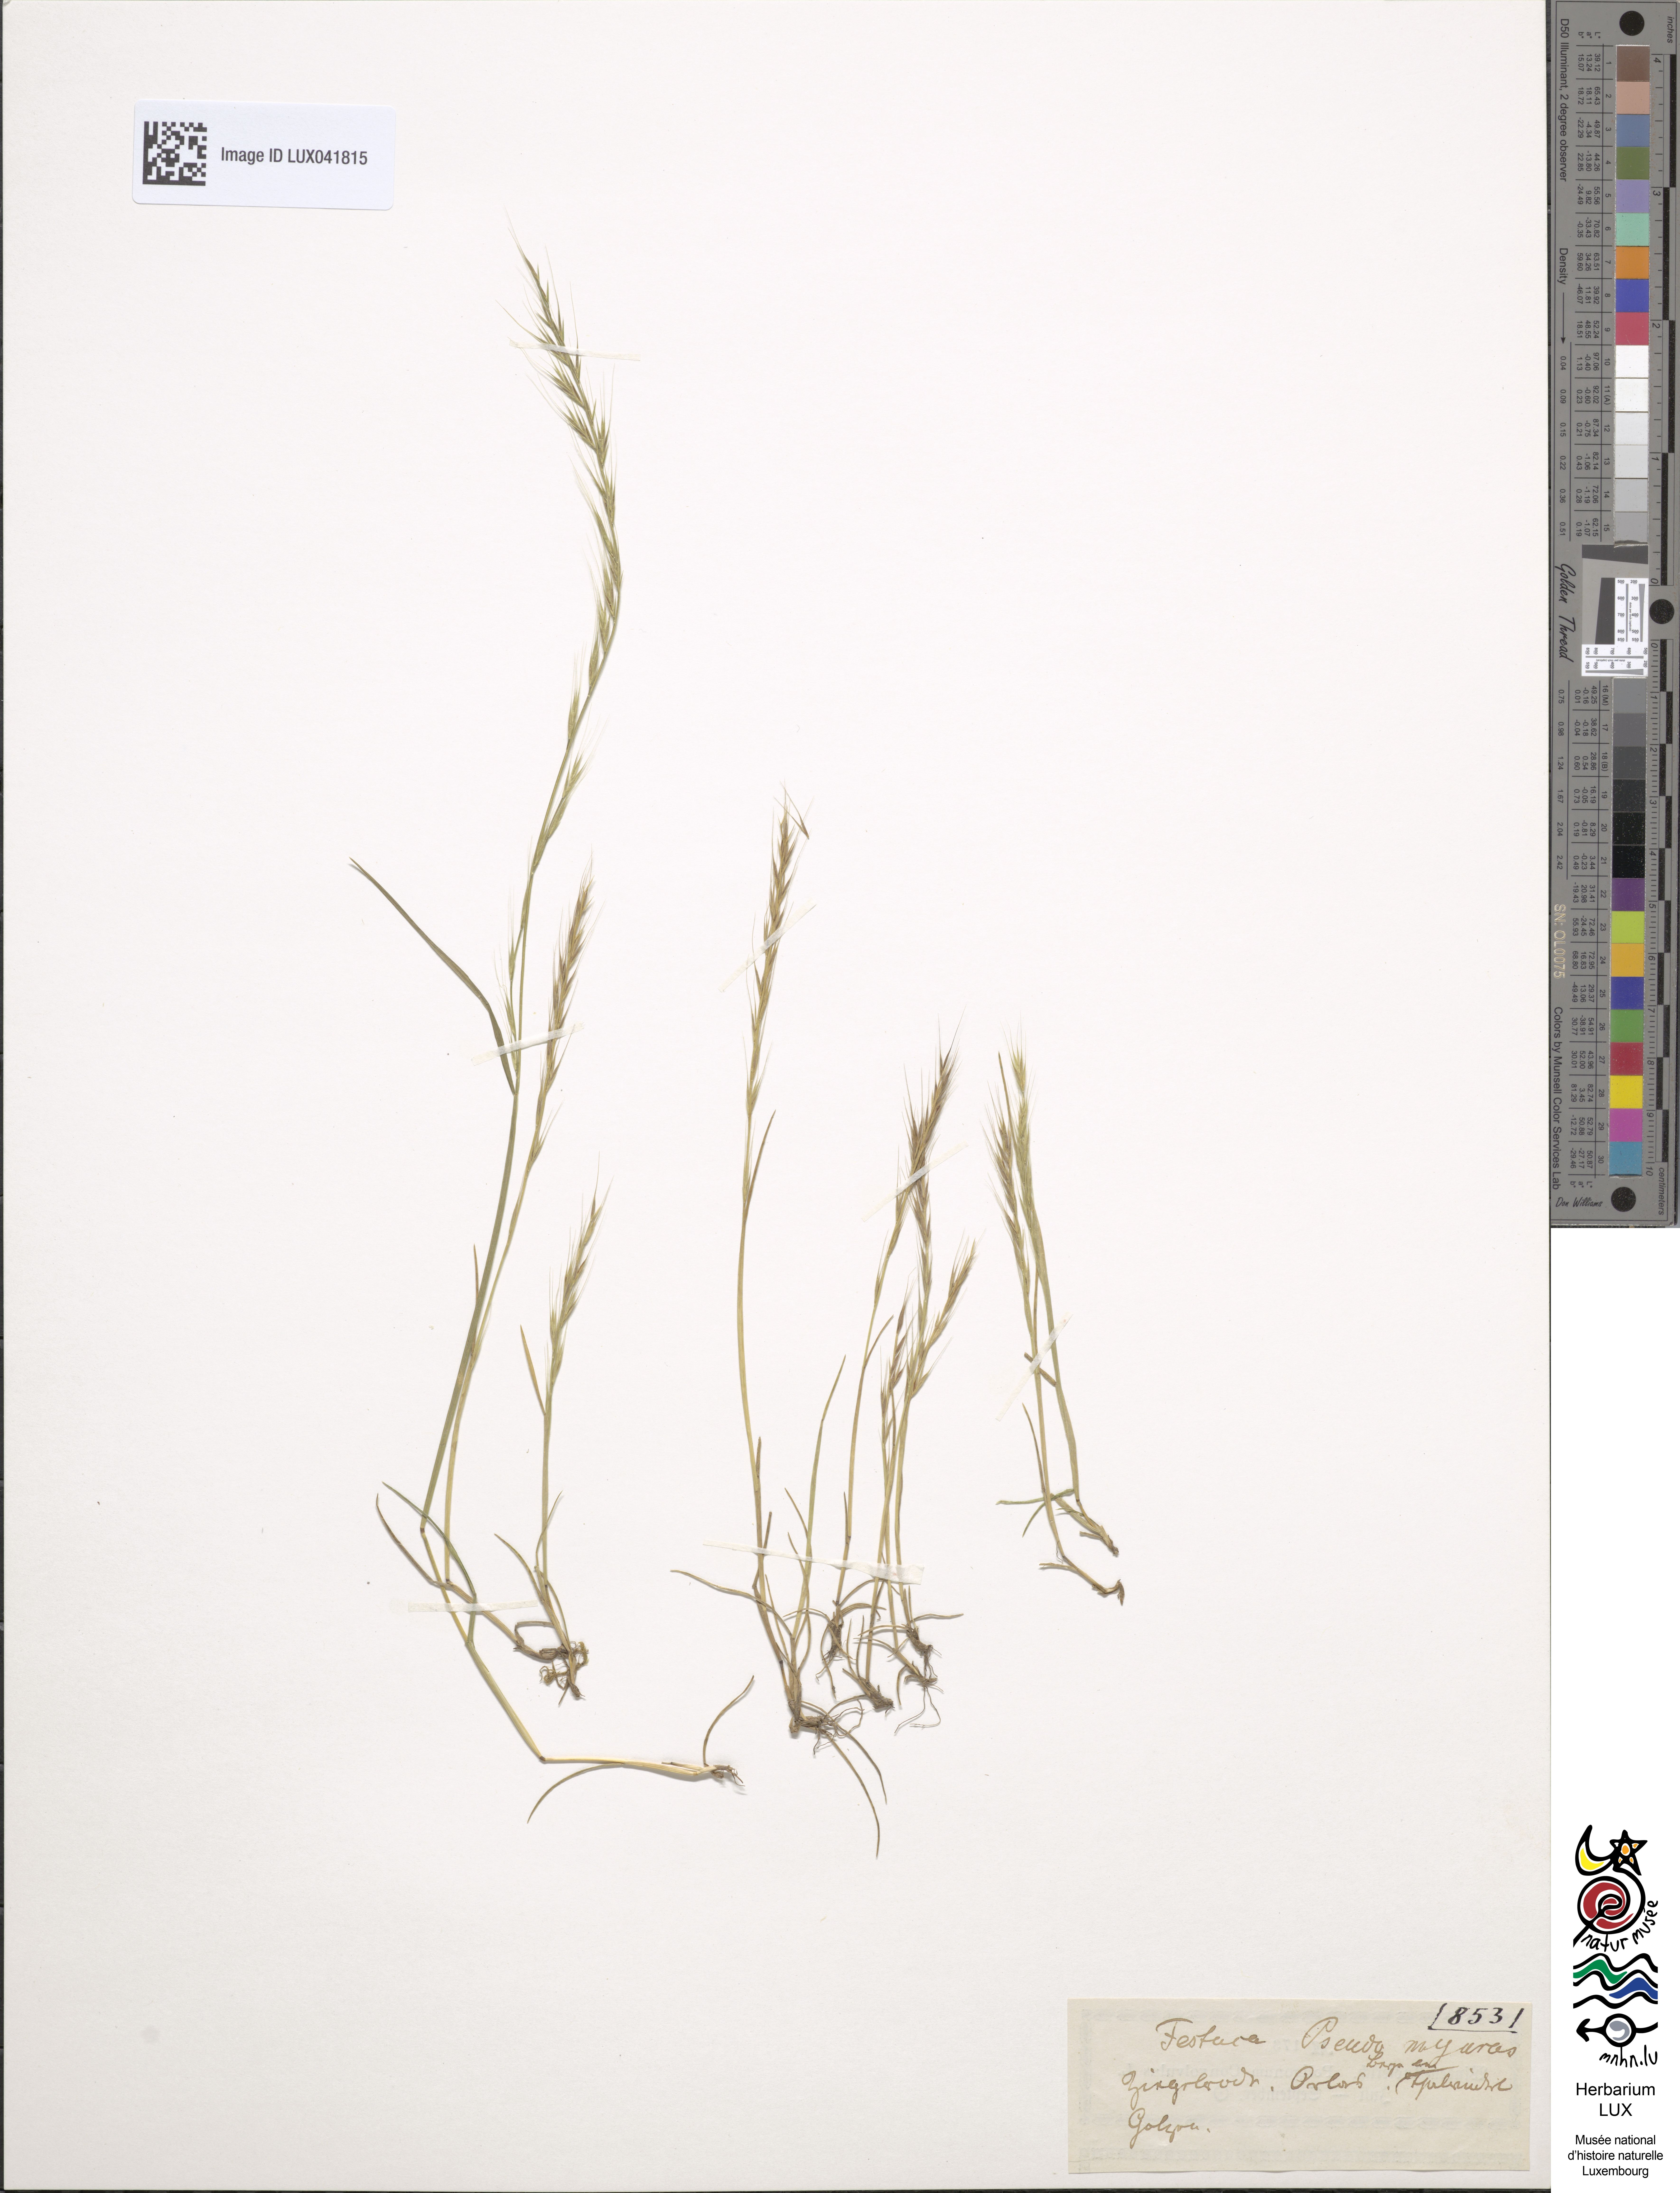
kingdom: Plantae
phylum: Tracheophyta
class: Liliopsida
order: Poales
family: Poaceae
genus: Festuca
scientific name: Festuca myuros
